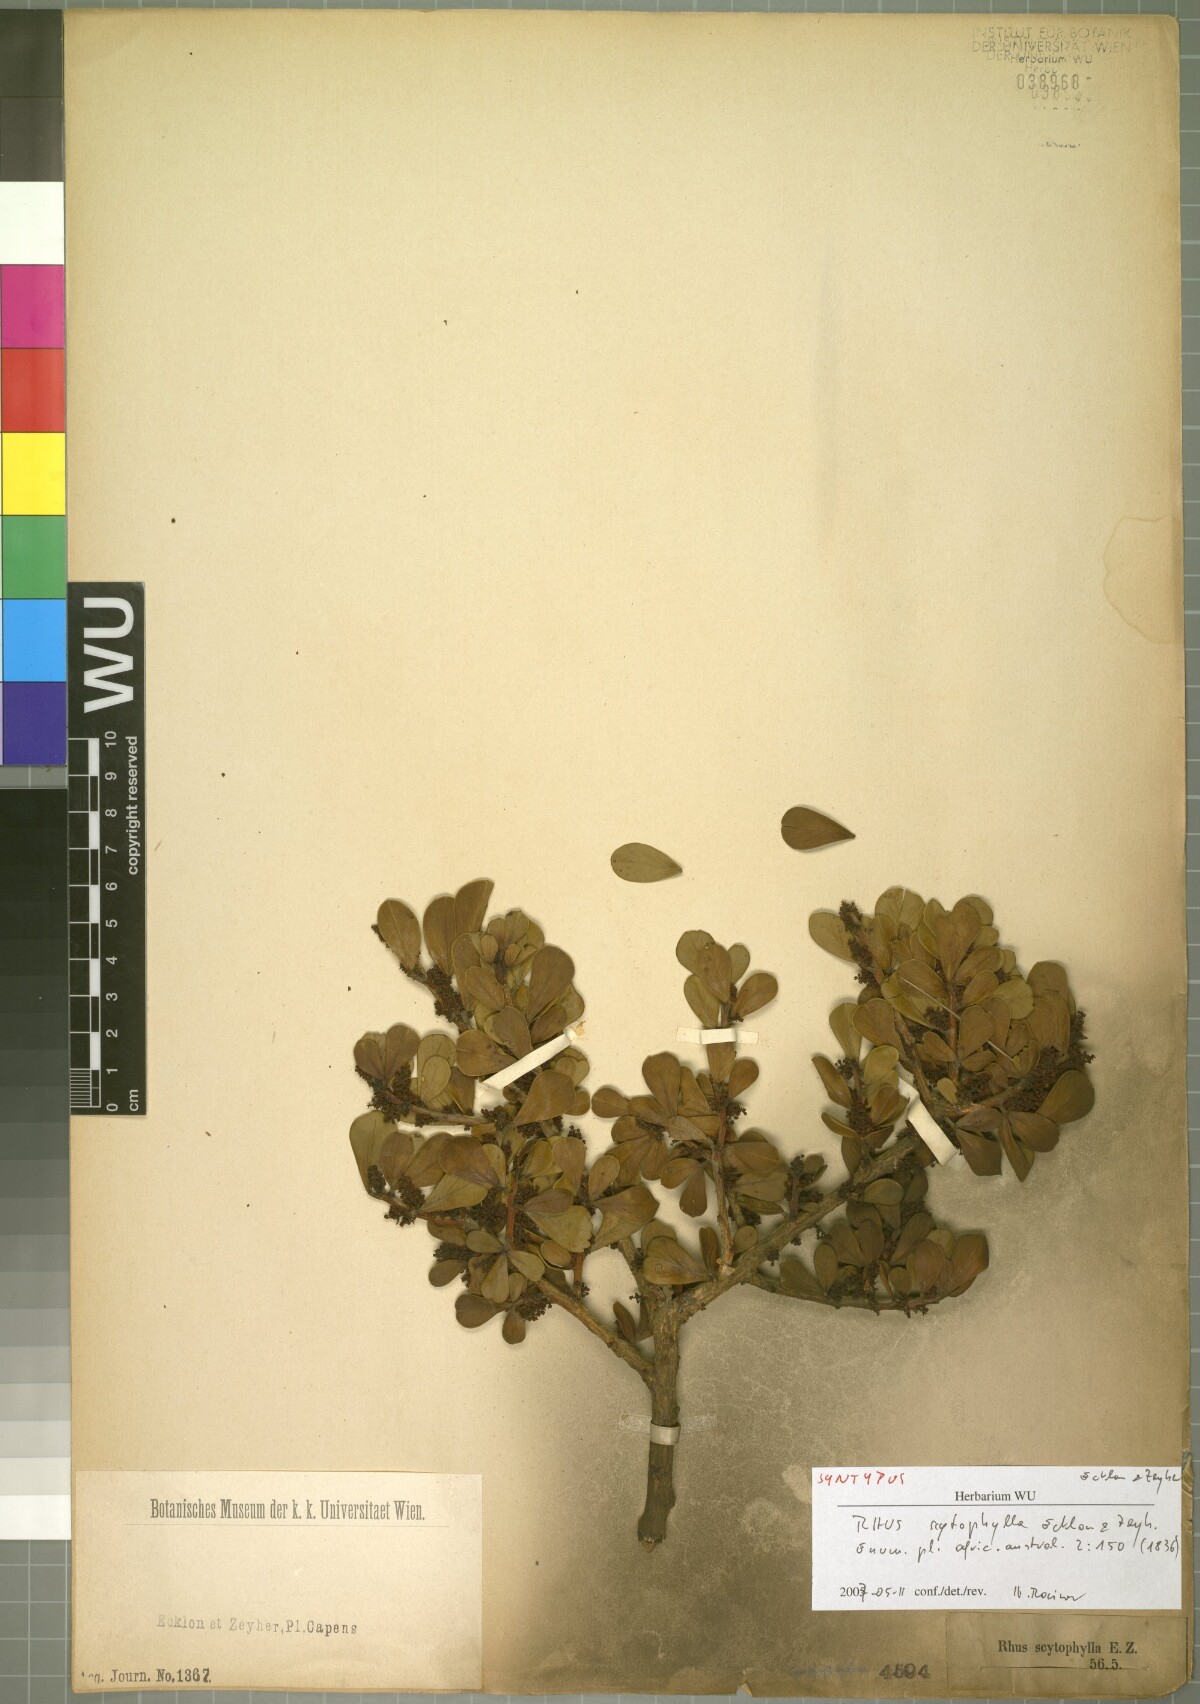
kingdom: Plantae
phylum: Tracheophyta
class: Magnoliopsida
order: Sapindales
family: Anacardiaceae
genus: Searsia
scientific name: Searsia scytophylla
